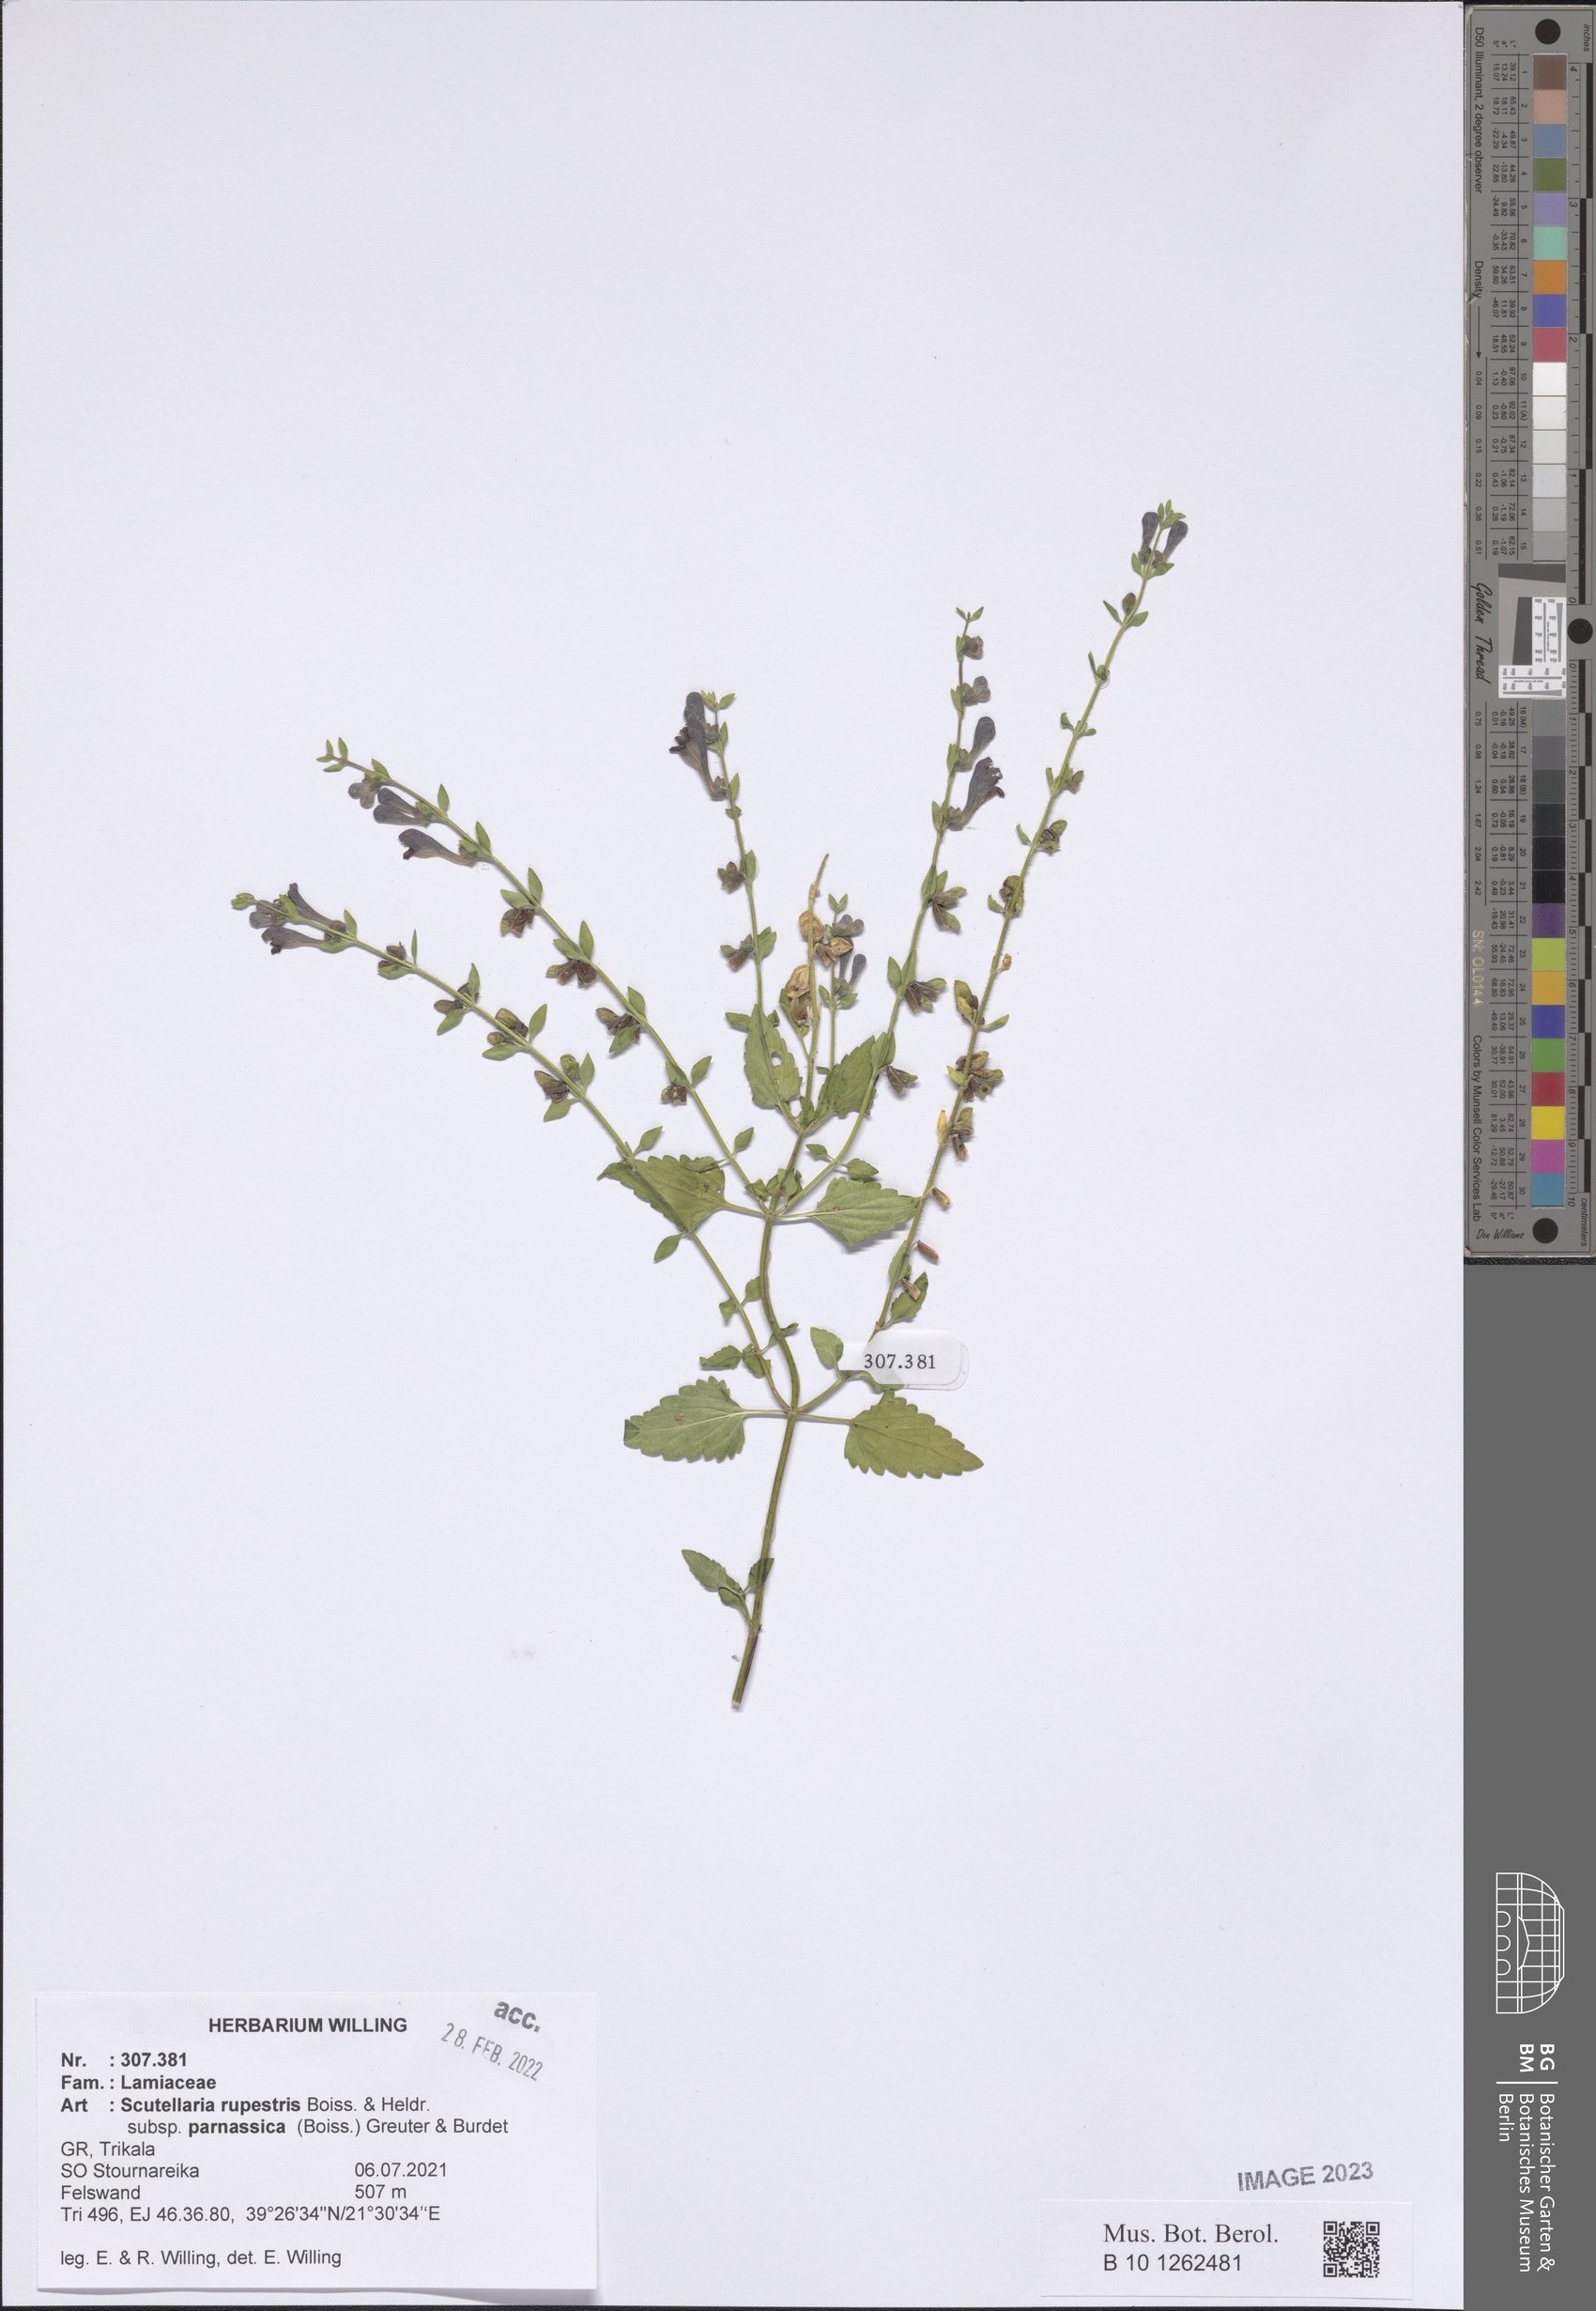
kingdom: Plantae
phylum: Tracheophyta
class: Magnoliopsida
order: Lamiales
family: Lamiaceae
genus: Scutellaria
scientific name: Scutellaria rupestris
